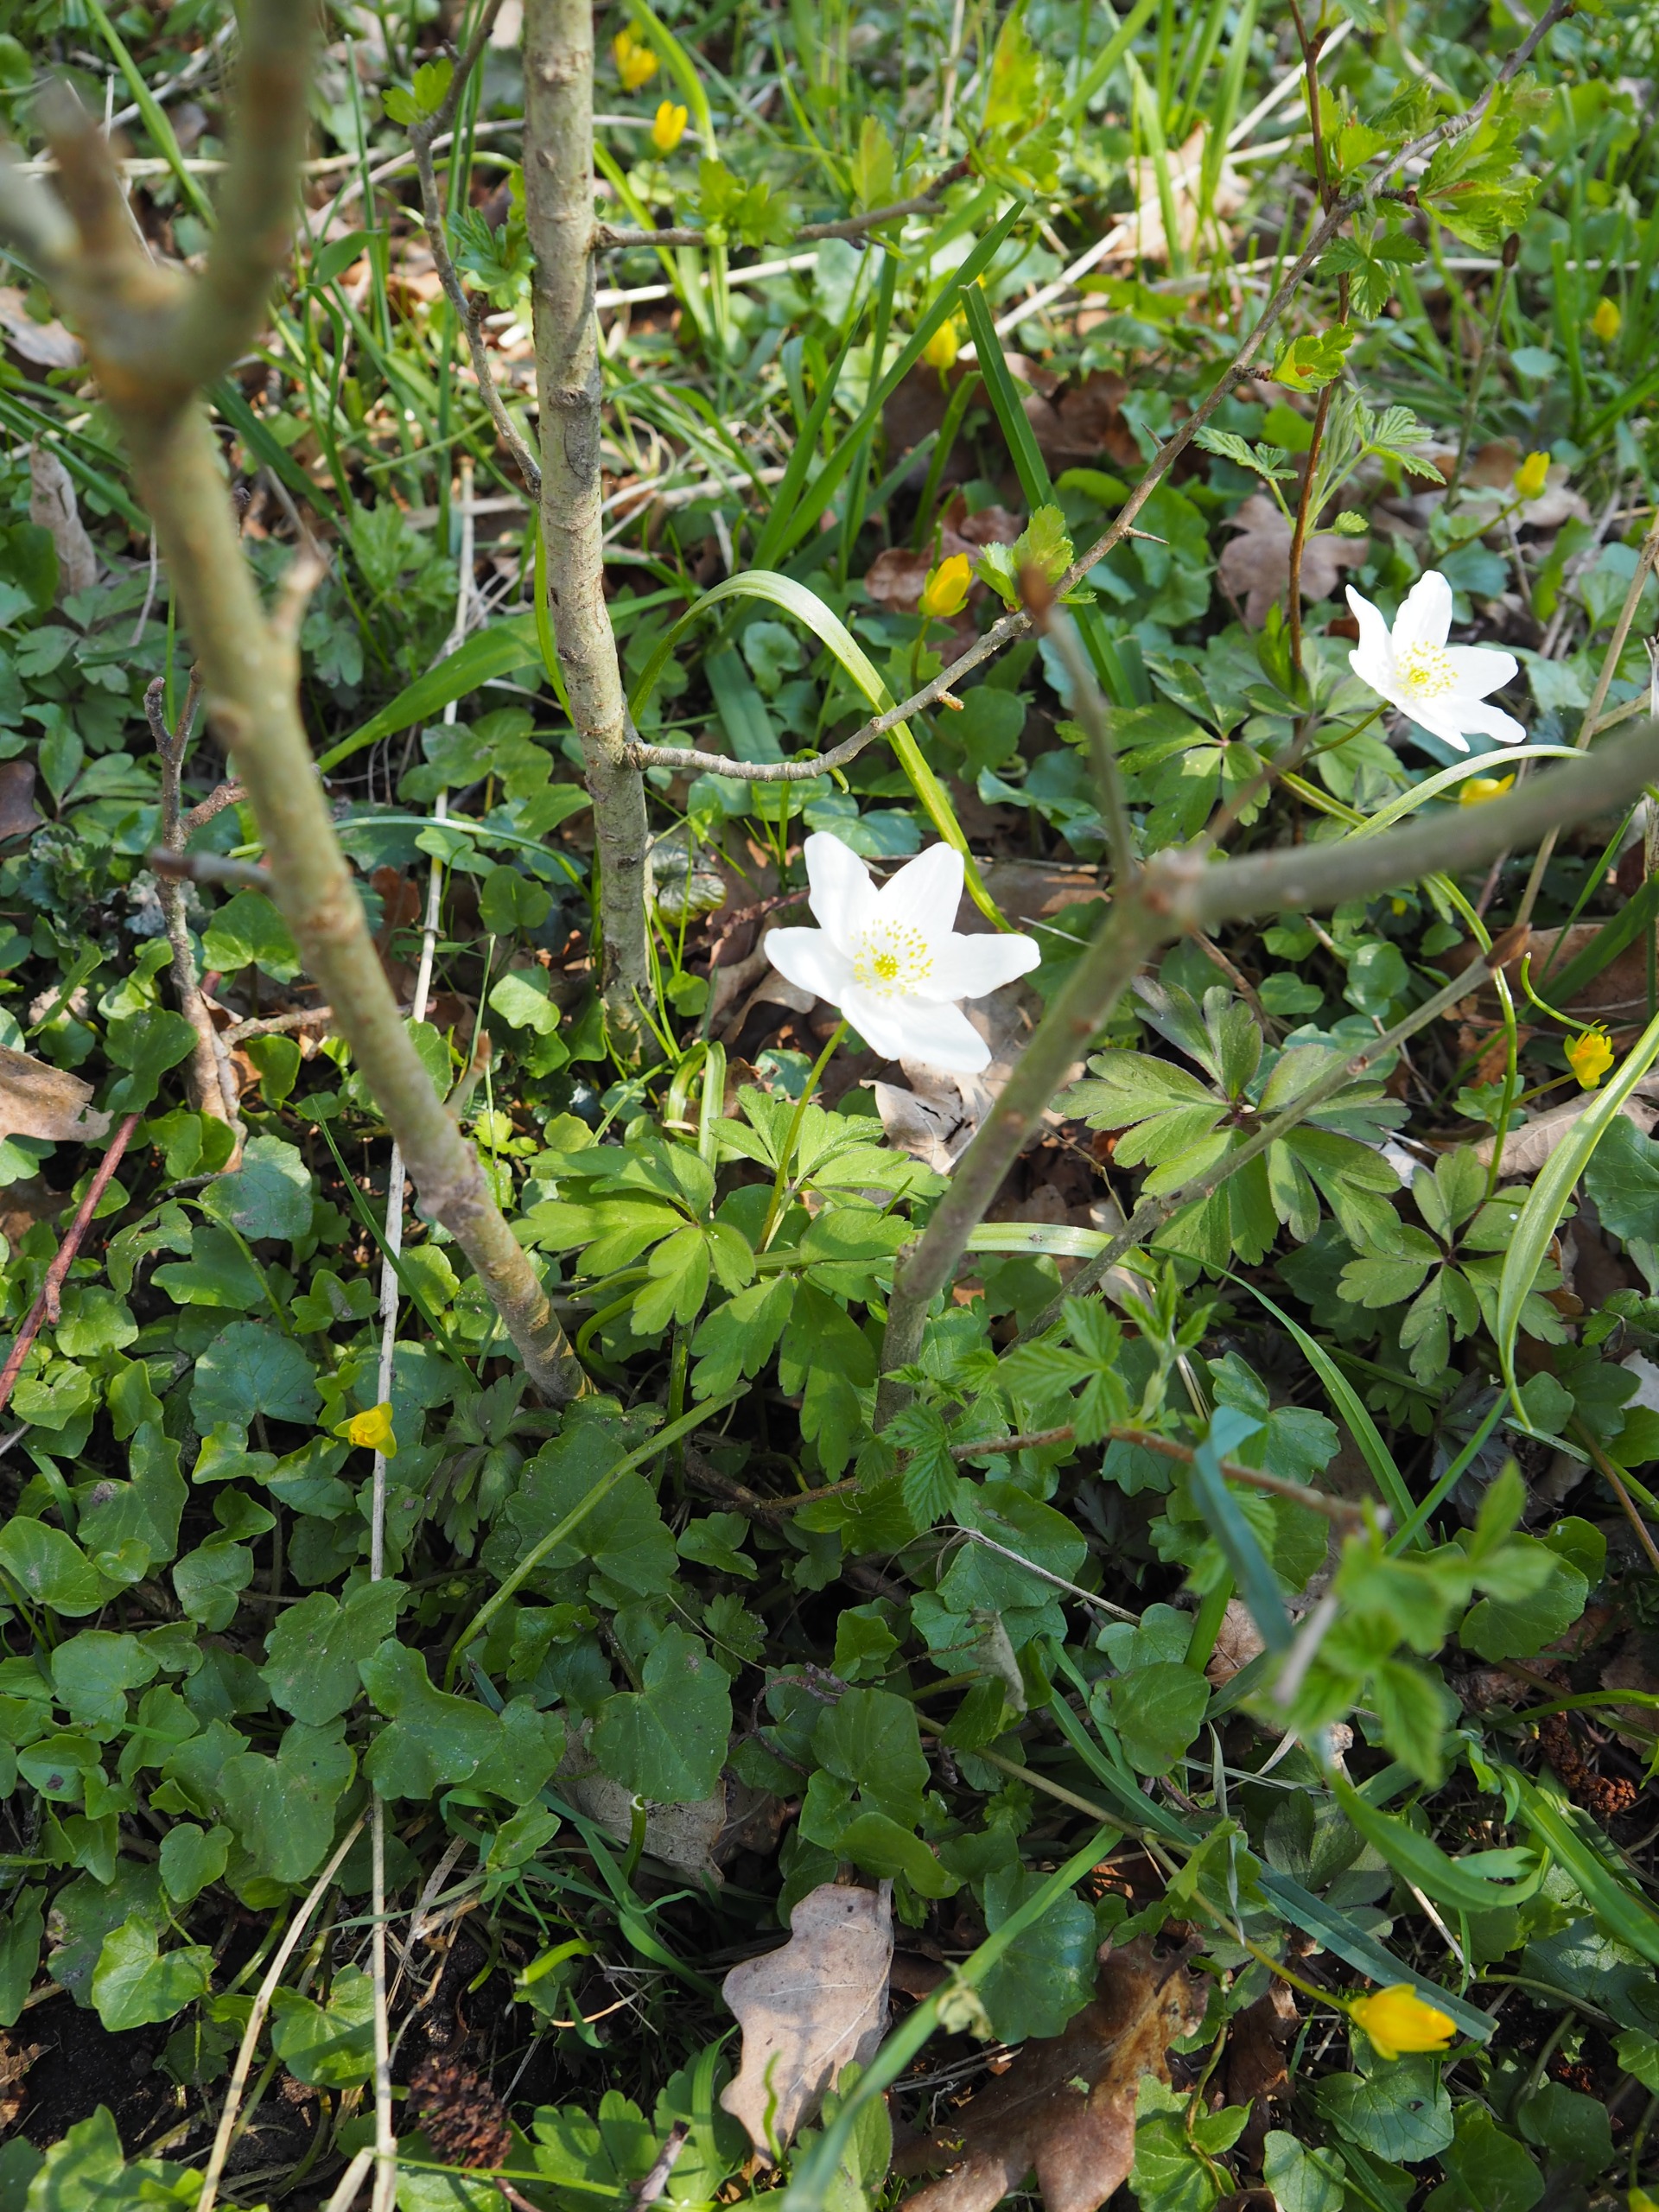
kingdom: Plantae
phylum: Tracheophyta
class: Magnoliopsida
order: Ranunculales
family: Ranunculaceae
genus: Anemone
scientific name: Anemone nemorosa
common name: Hvid anemone
